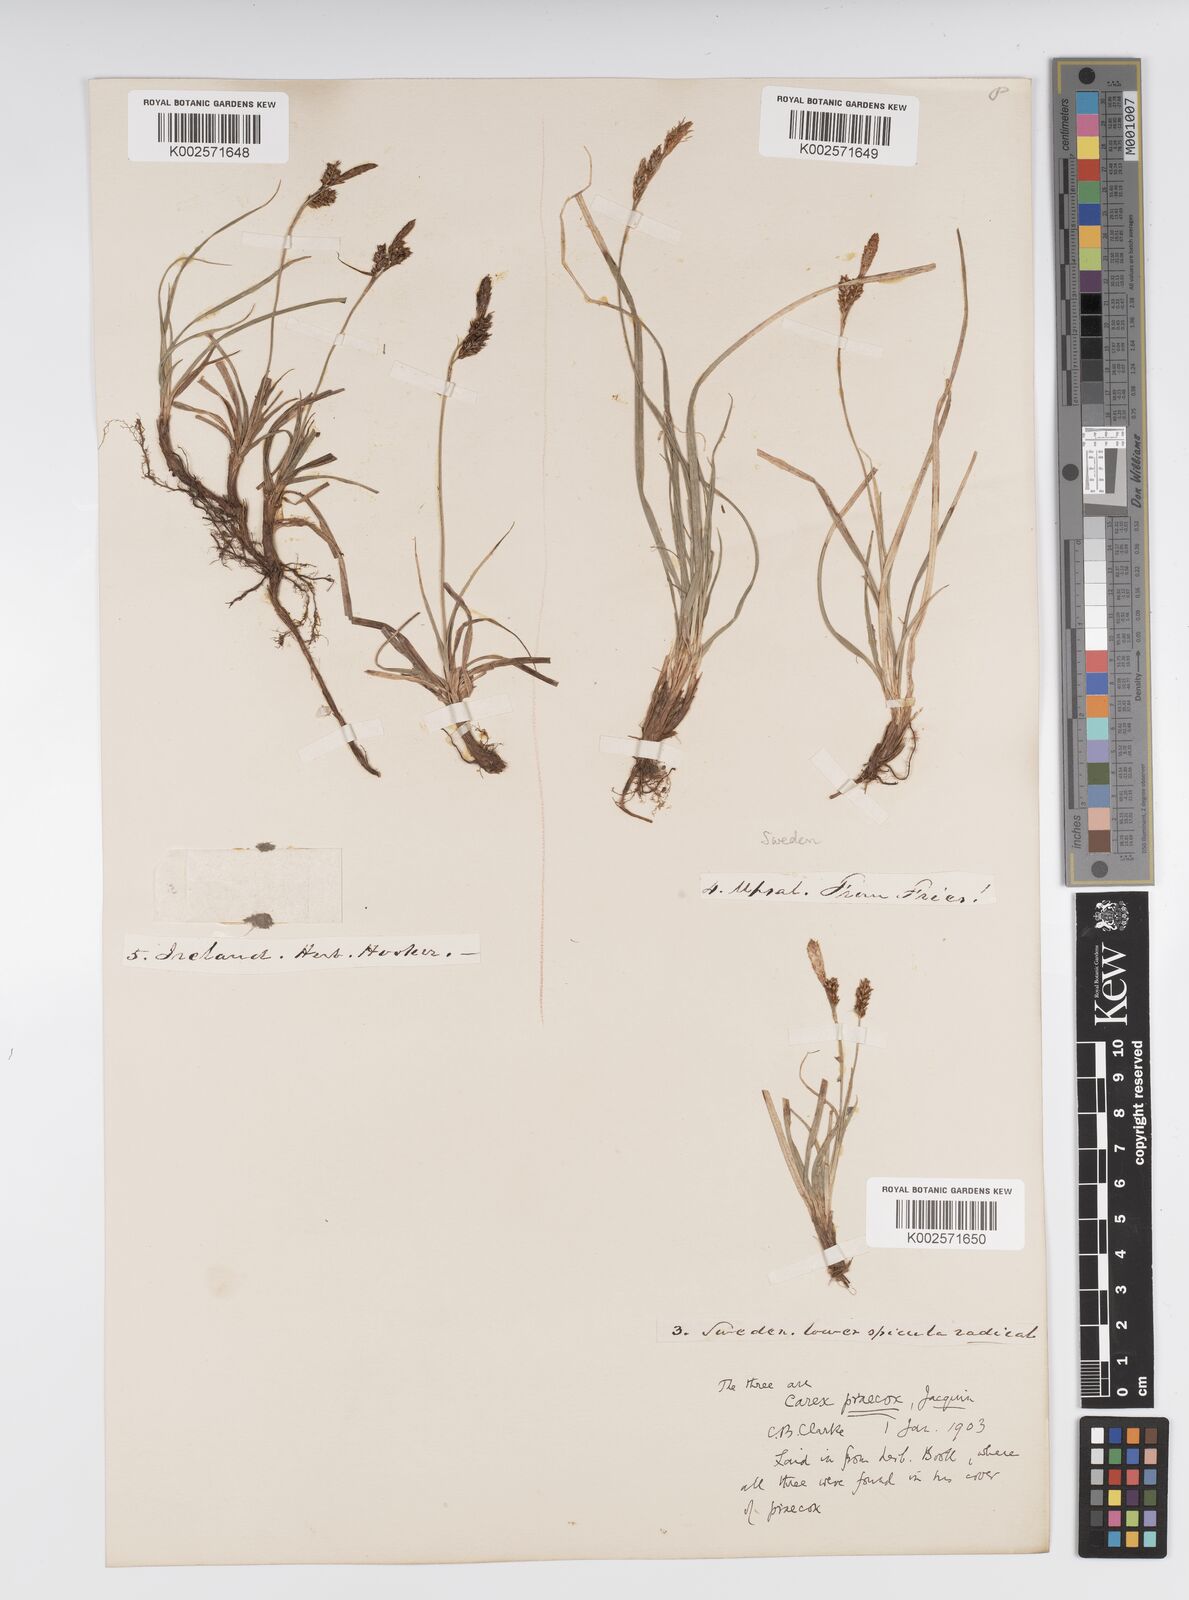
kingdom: Plantae
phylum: Tracheophyta
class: Liliopsida
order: Poales
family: Cyperaceae
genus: Carex
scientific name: Carex caryophyllea
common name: Spring sedge
